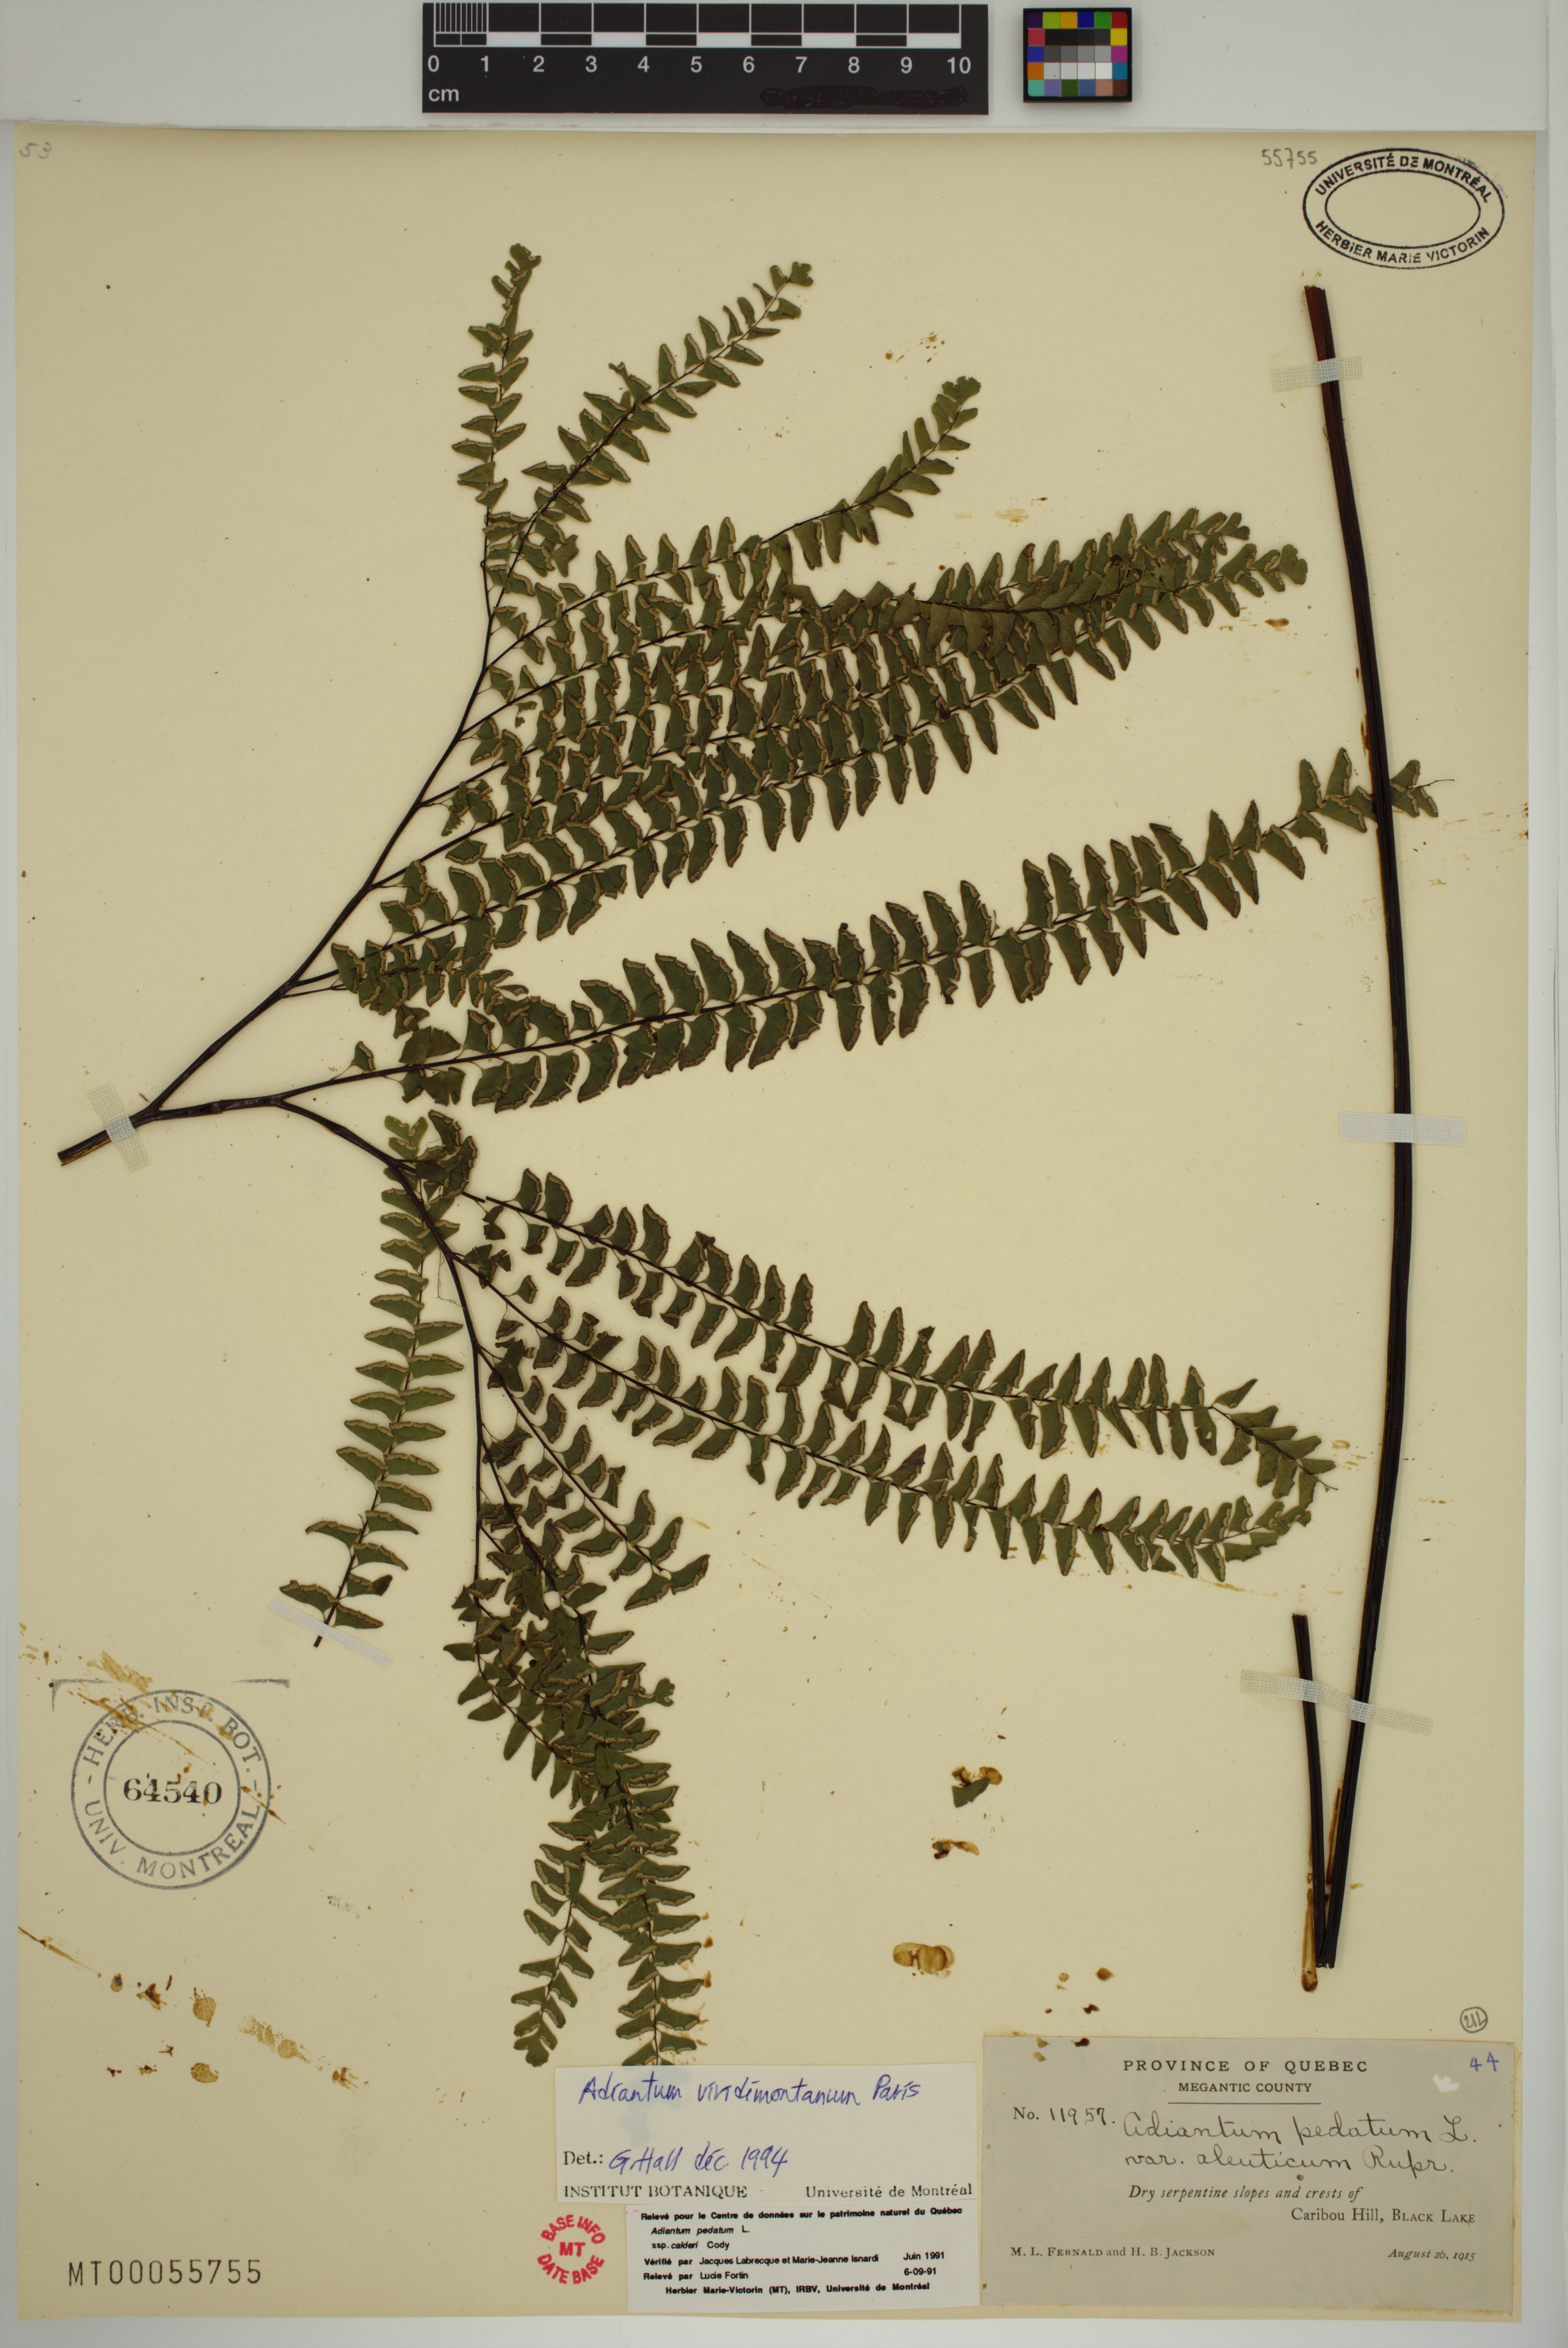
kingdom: Plantae
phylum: Tracheophyta
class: Polypodiopsida
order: Polypodiales
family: Pteridaceae
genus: Adiantum
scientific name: Adiantum viridimontanum
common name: Green mountain maidenhair
